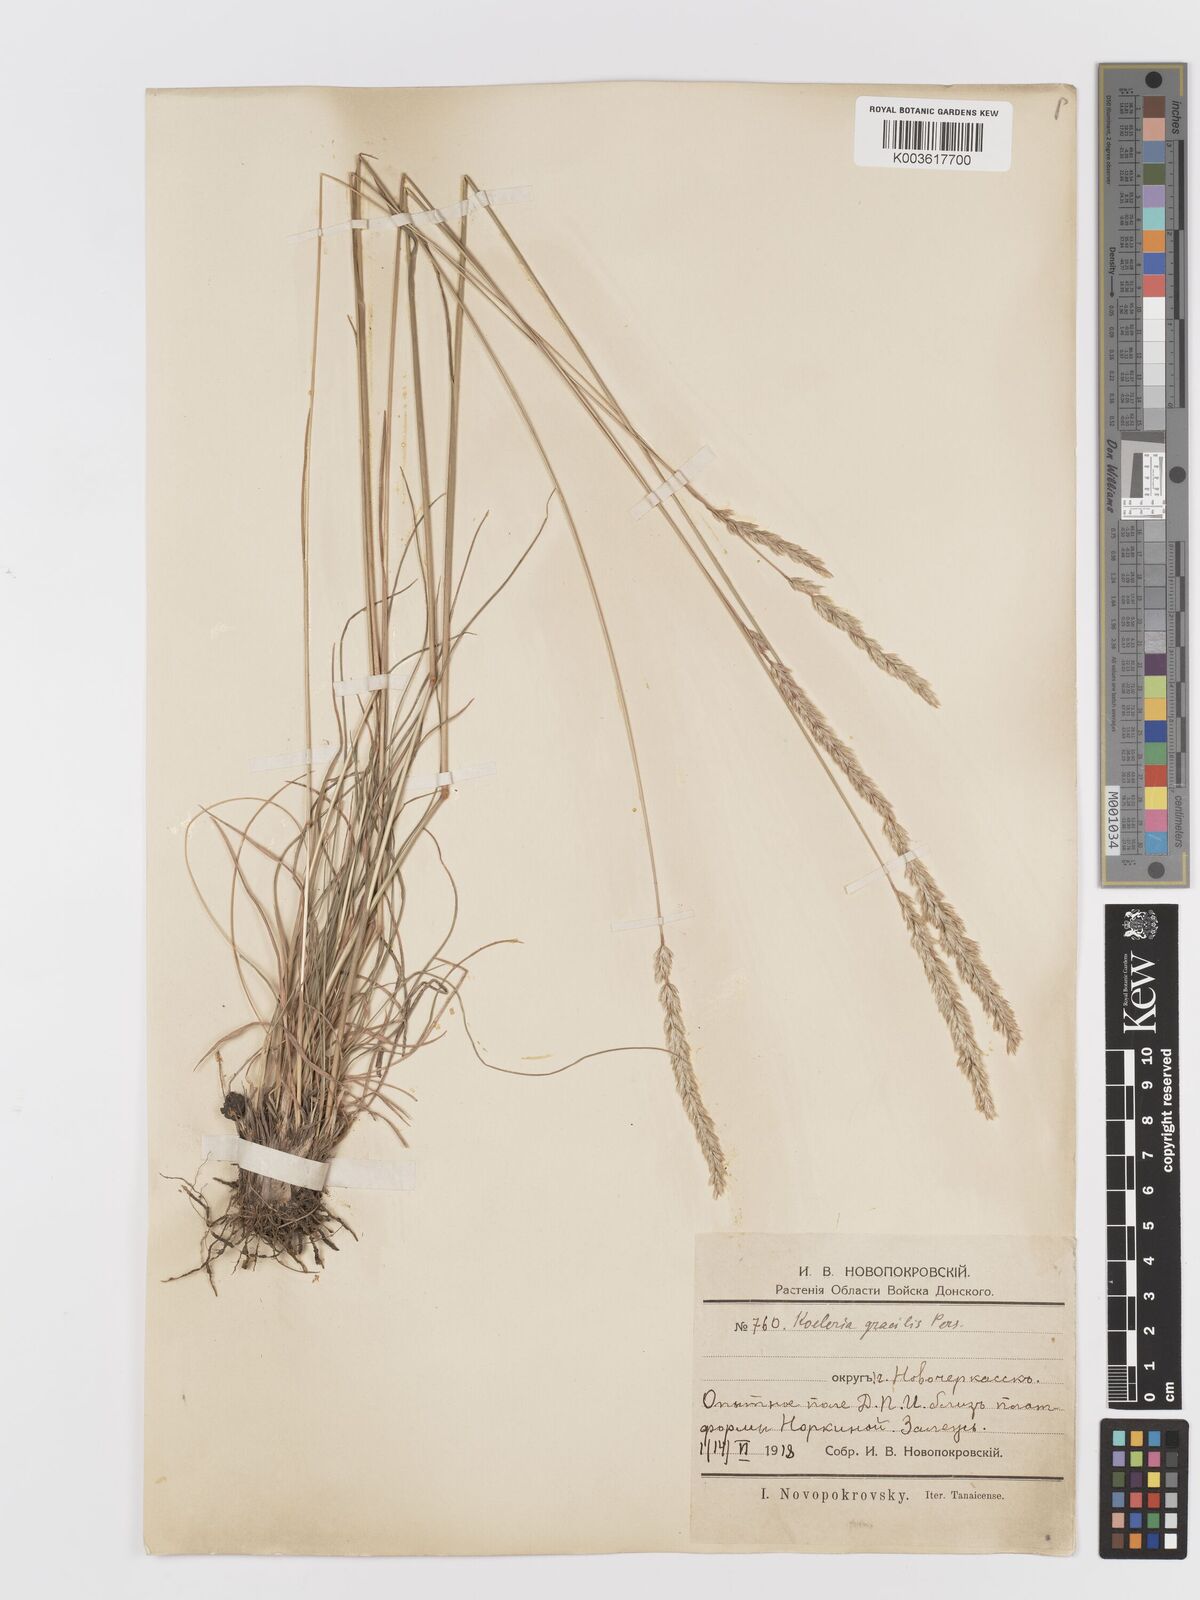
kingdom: Plantae
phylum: Tracheophyta
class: Liliopsida
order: Poales
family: Poaceae
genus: Koeleria
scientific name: Koeleria pyramidata
